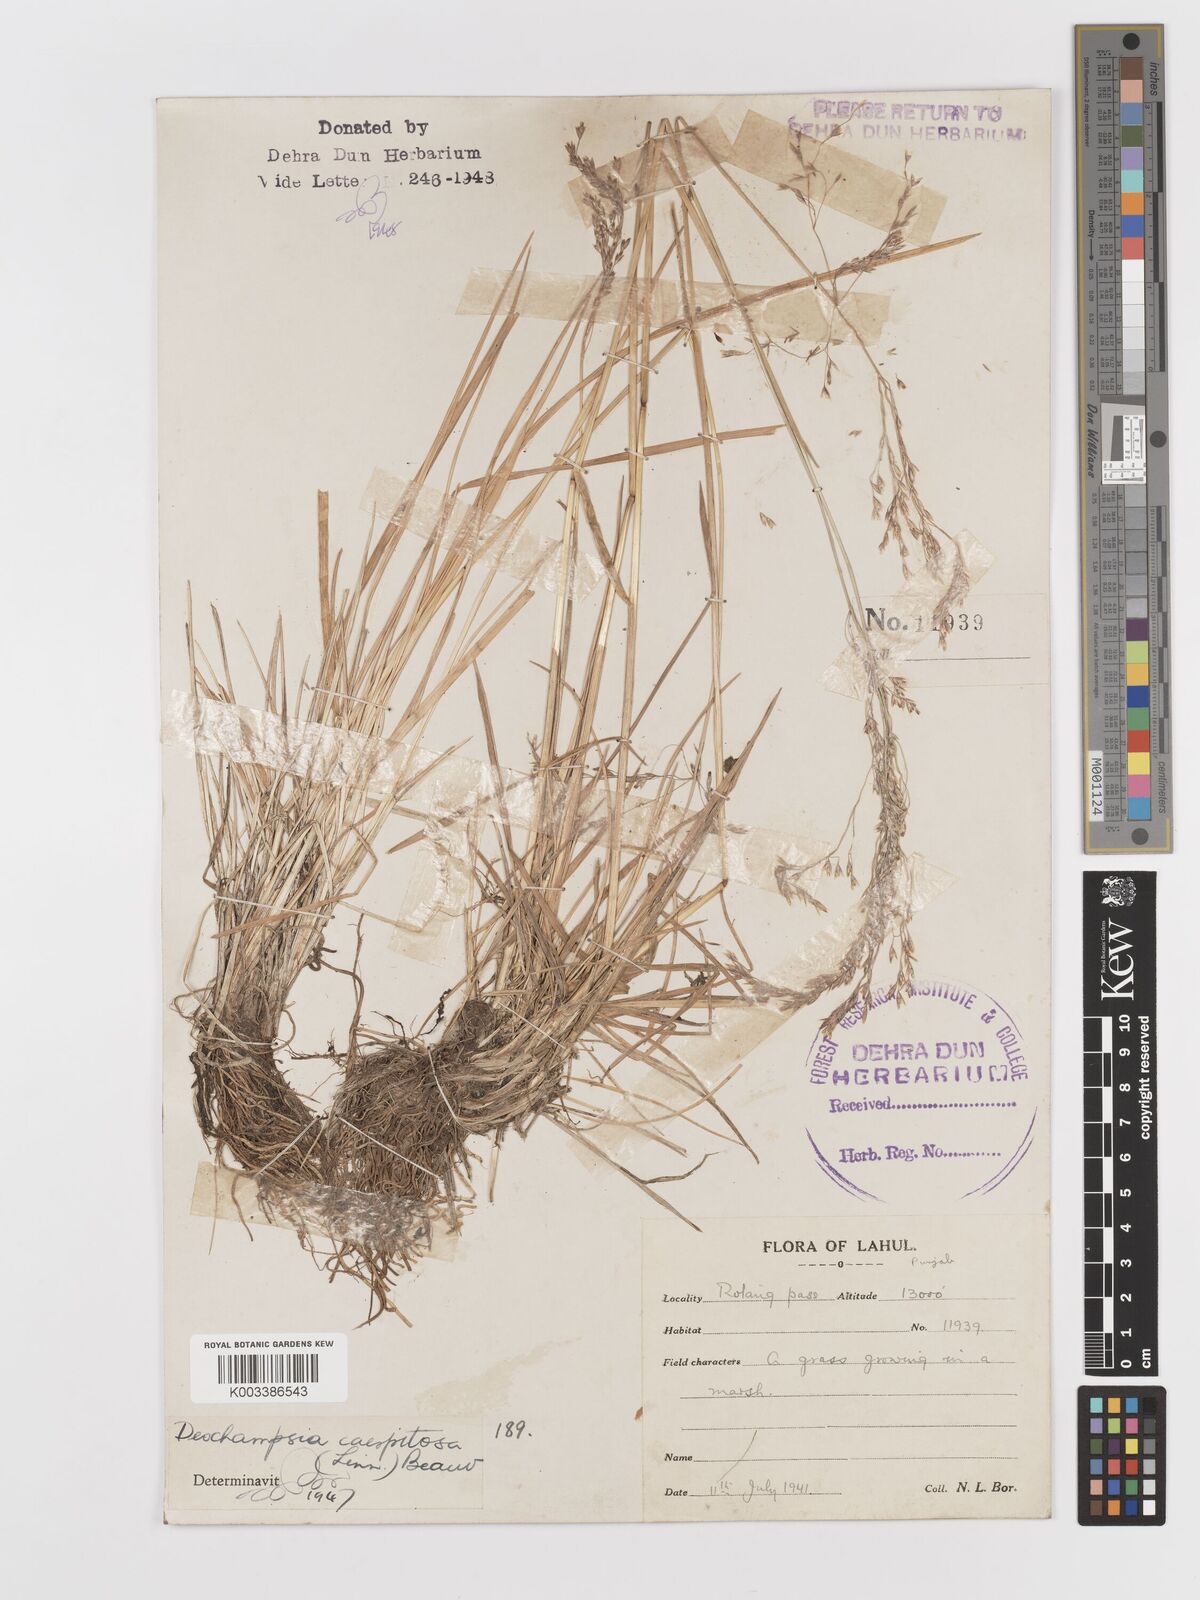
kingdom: Plantae
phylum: Tracheophyta
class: Liliopsida
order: Poales
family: Poaceae
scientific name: Poaceae
